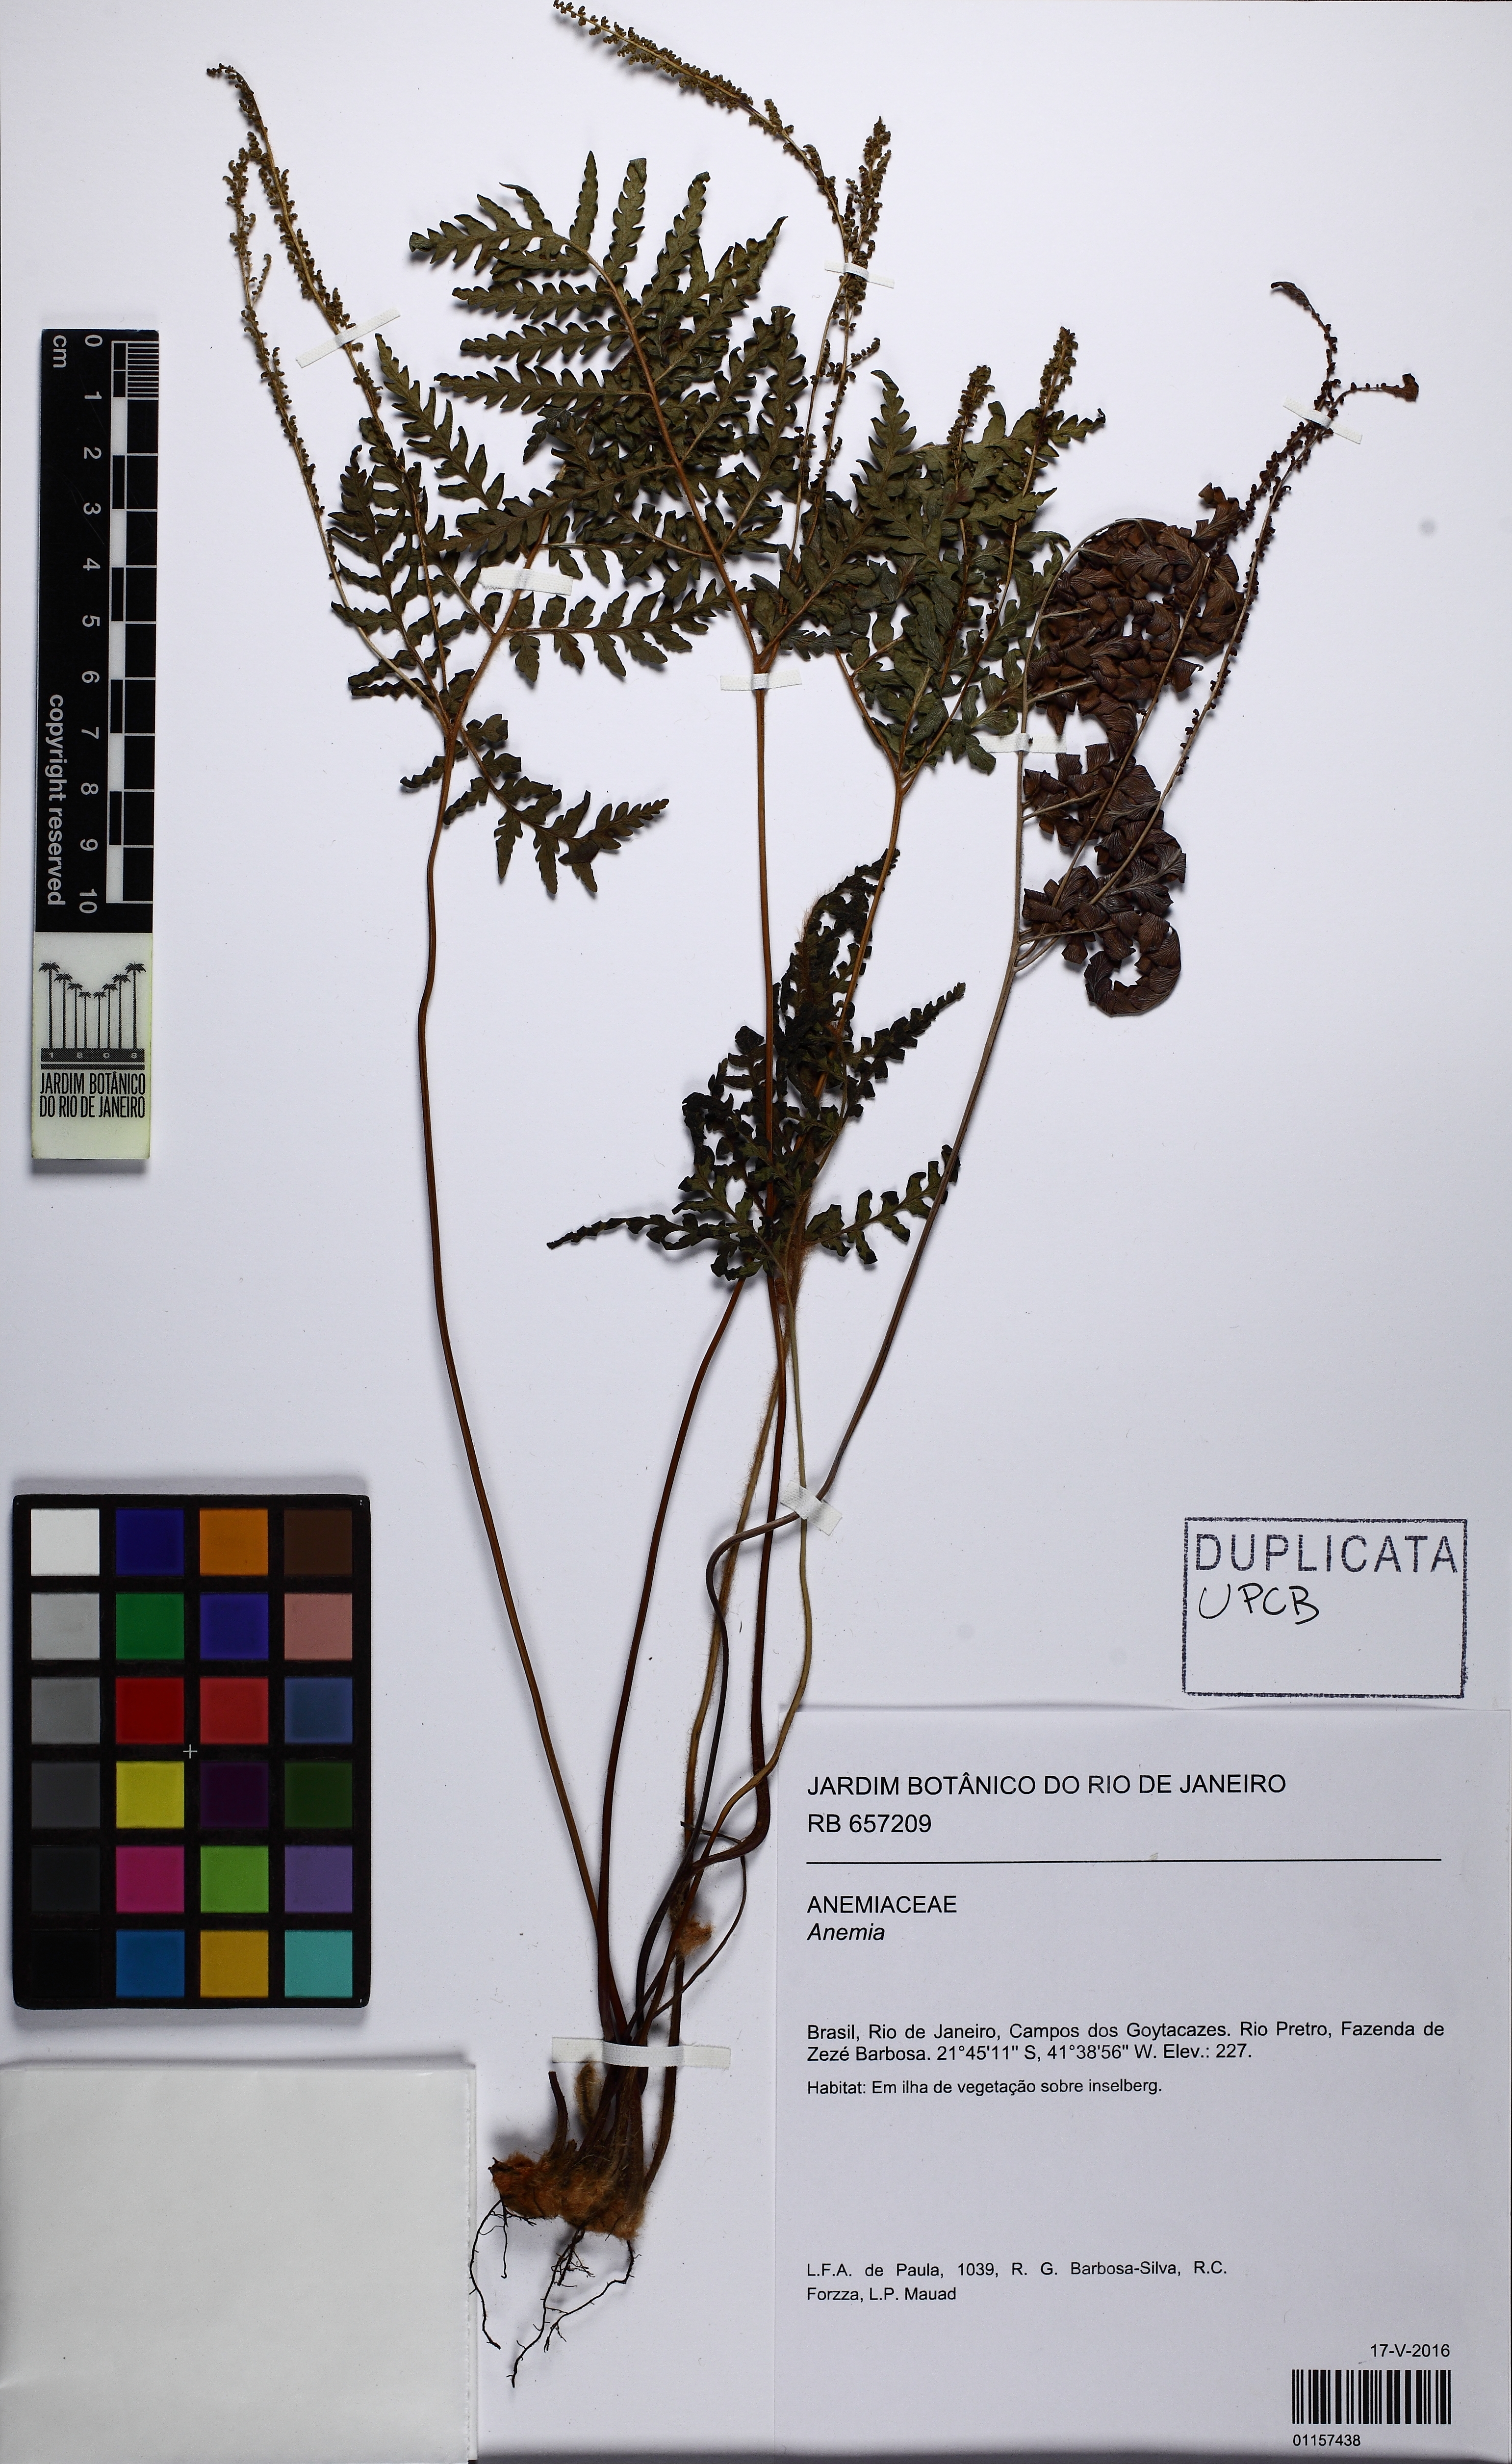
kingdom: Plantae
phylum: Tracheophyta
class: Polypodiopsida
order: Schizaeales
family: Anemiaceae
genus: Anemia
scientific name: Anemia ferruginea
